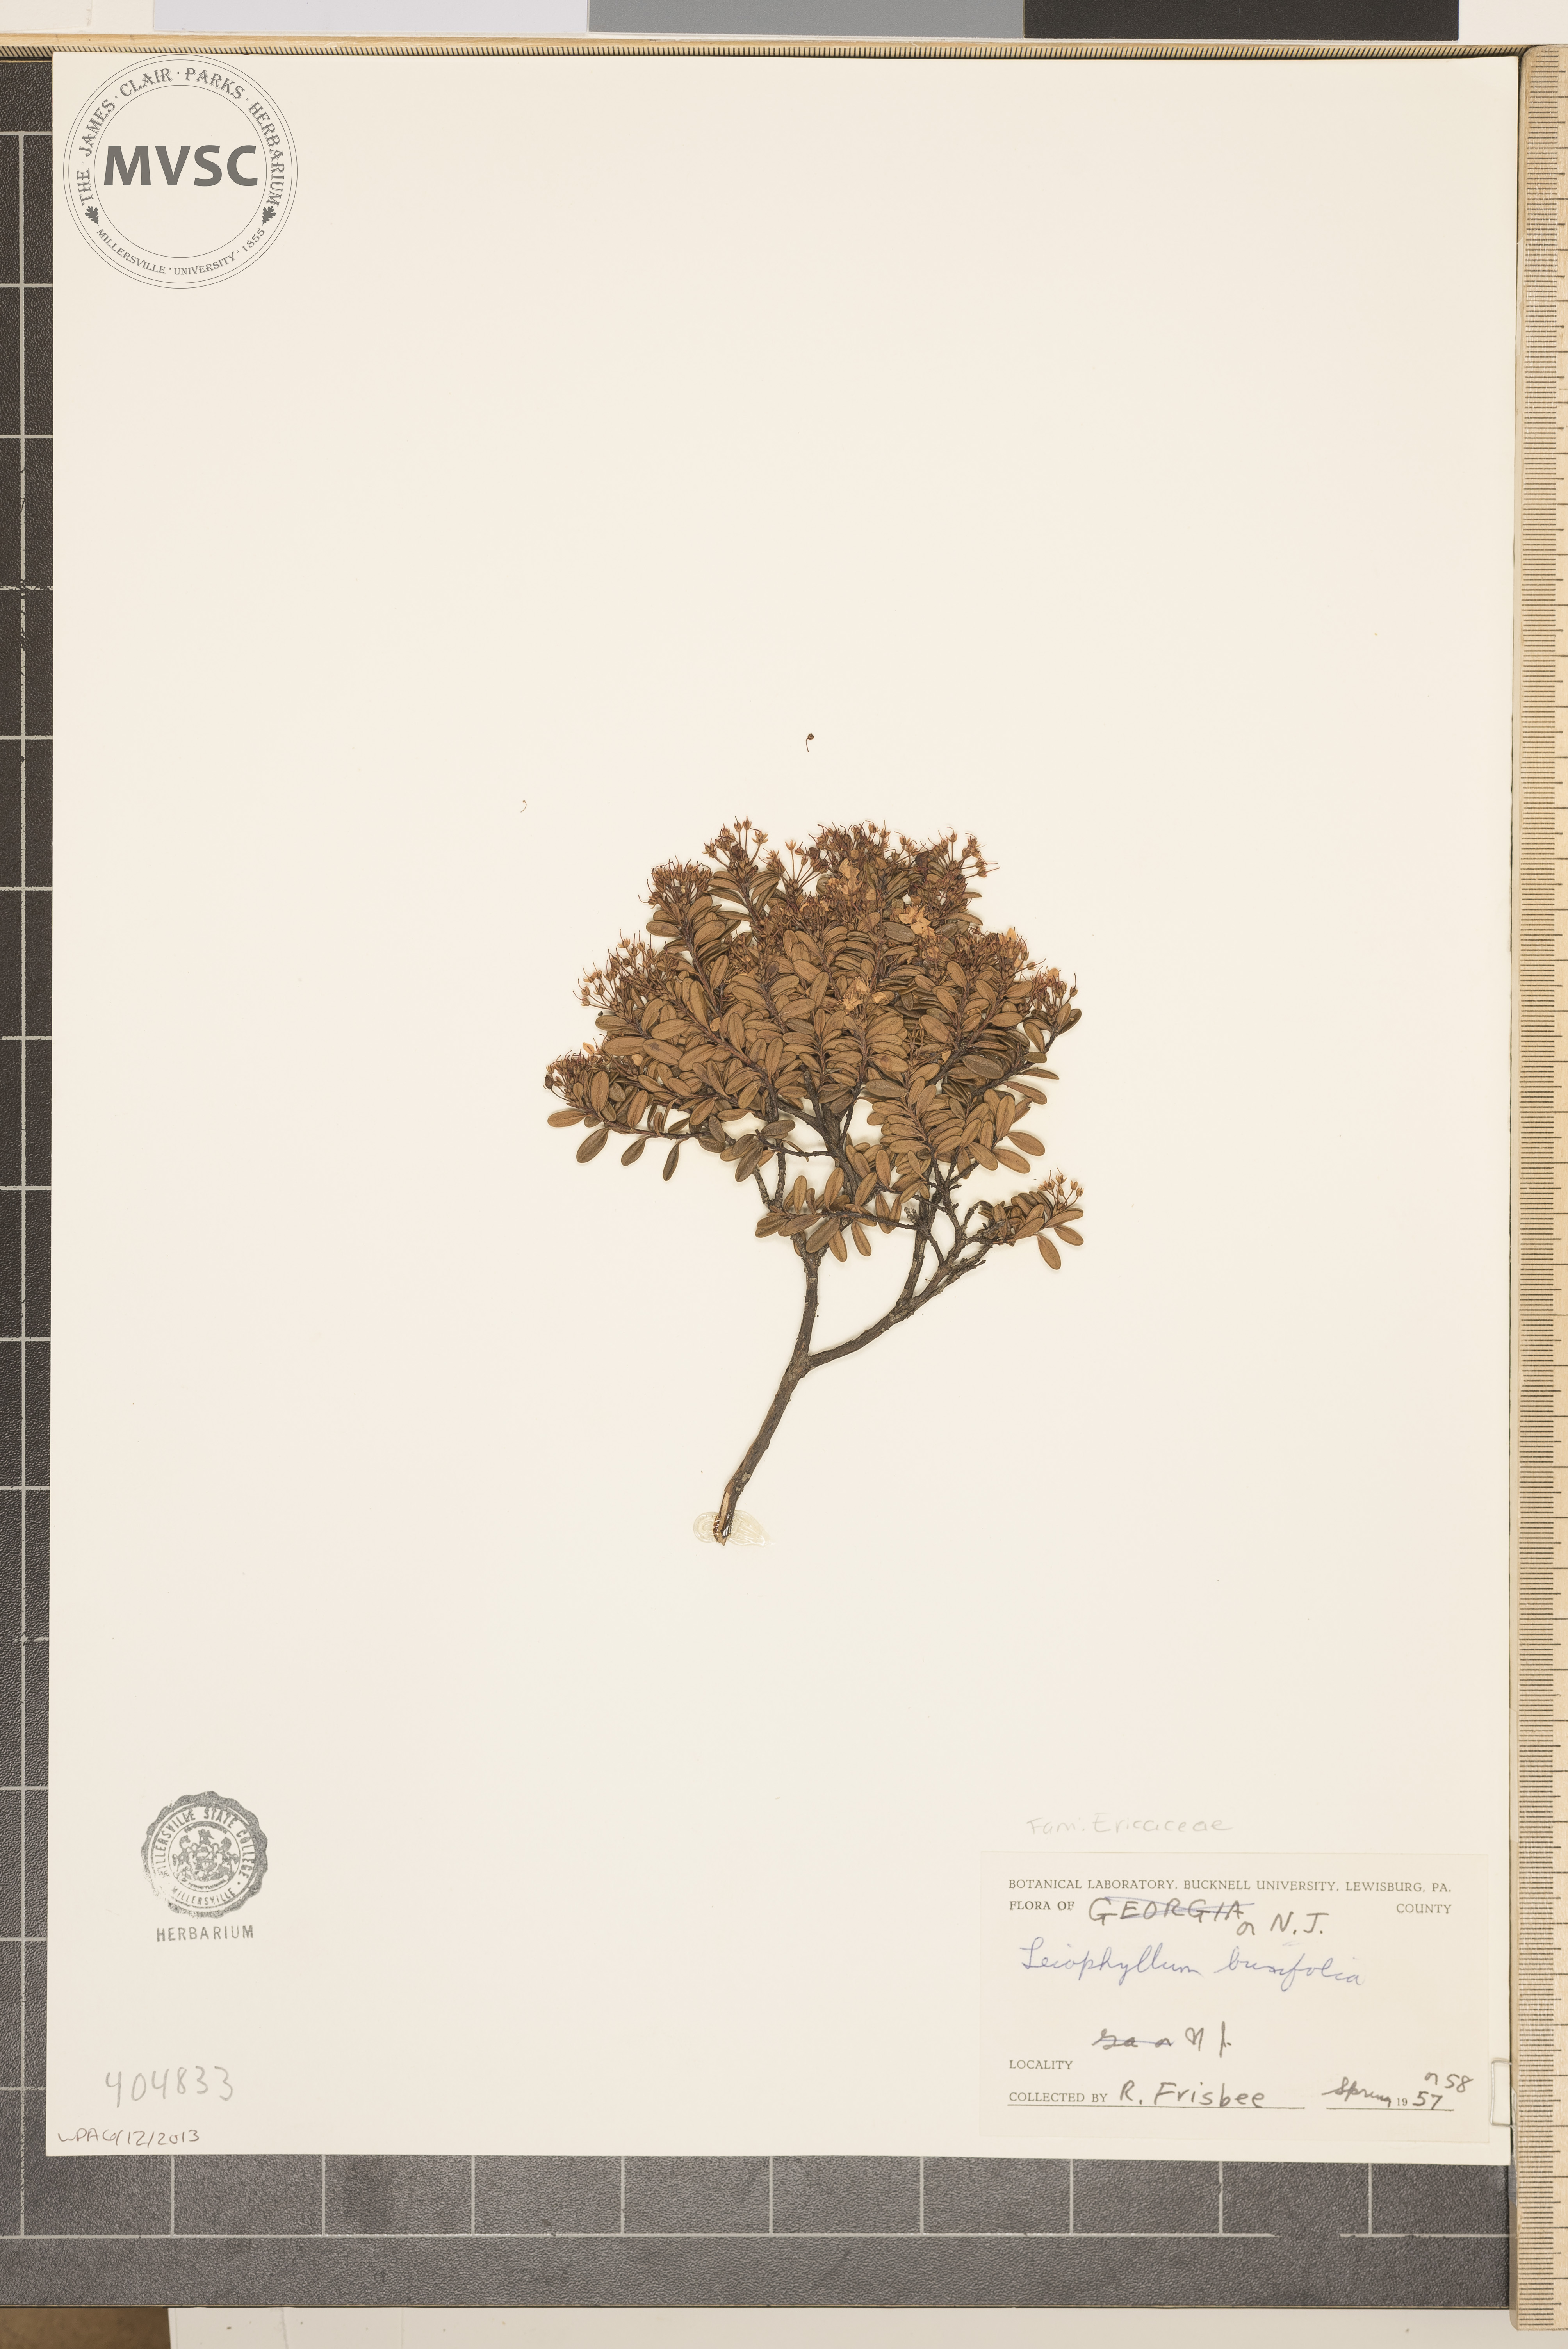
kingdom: Plantae
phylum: Tracheophyta
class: Magnoliopsida
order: Ericales
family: Ericaceae
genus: Kalmia
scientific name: Kalmia buxifolia
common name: Sandmyrtle
